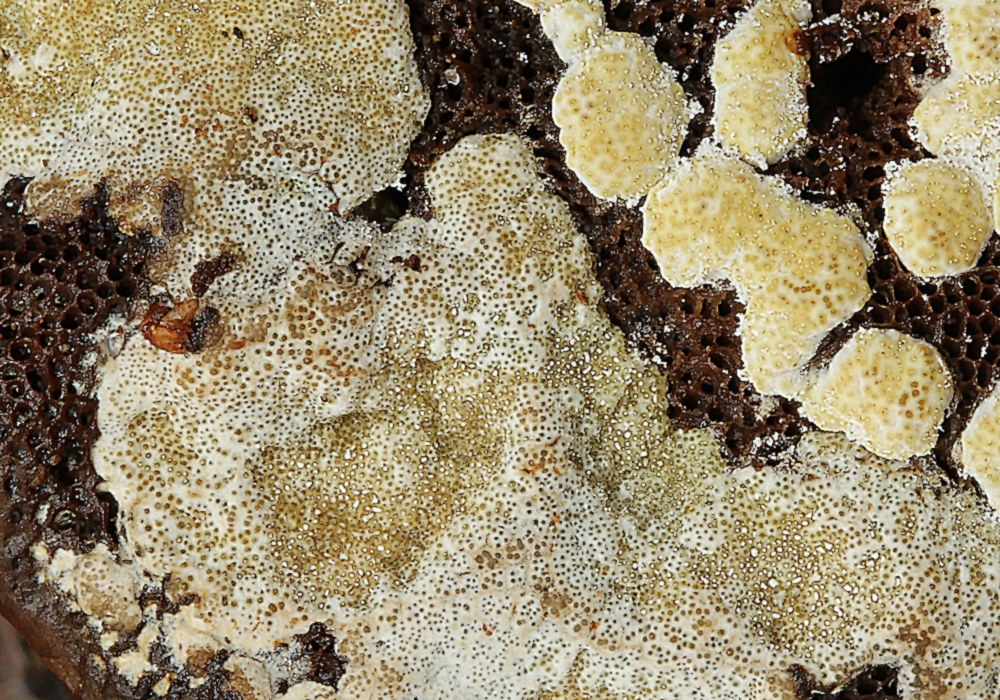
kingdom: Fungi
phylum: Ascomycota
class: Sordariomycetes
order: Hypocreales
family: Hypocreaceae
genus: Trichoderma
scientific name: Trichoderma pulvinatum
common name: snyltende kødkerne
